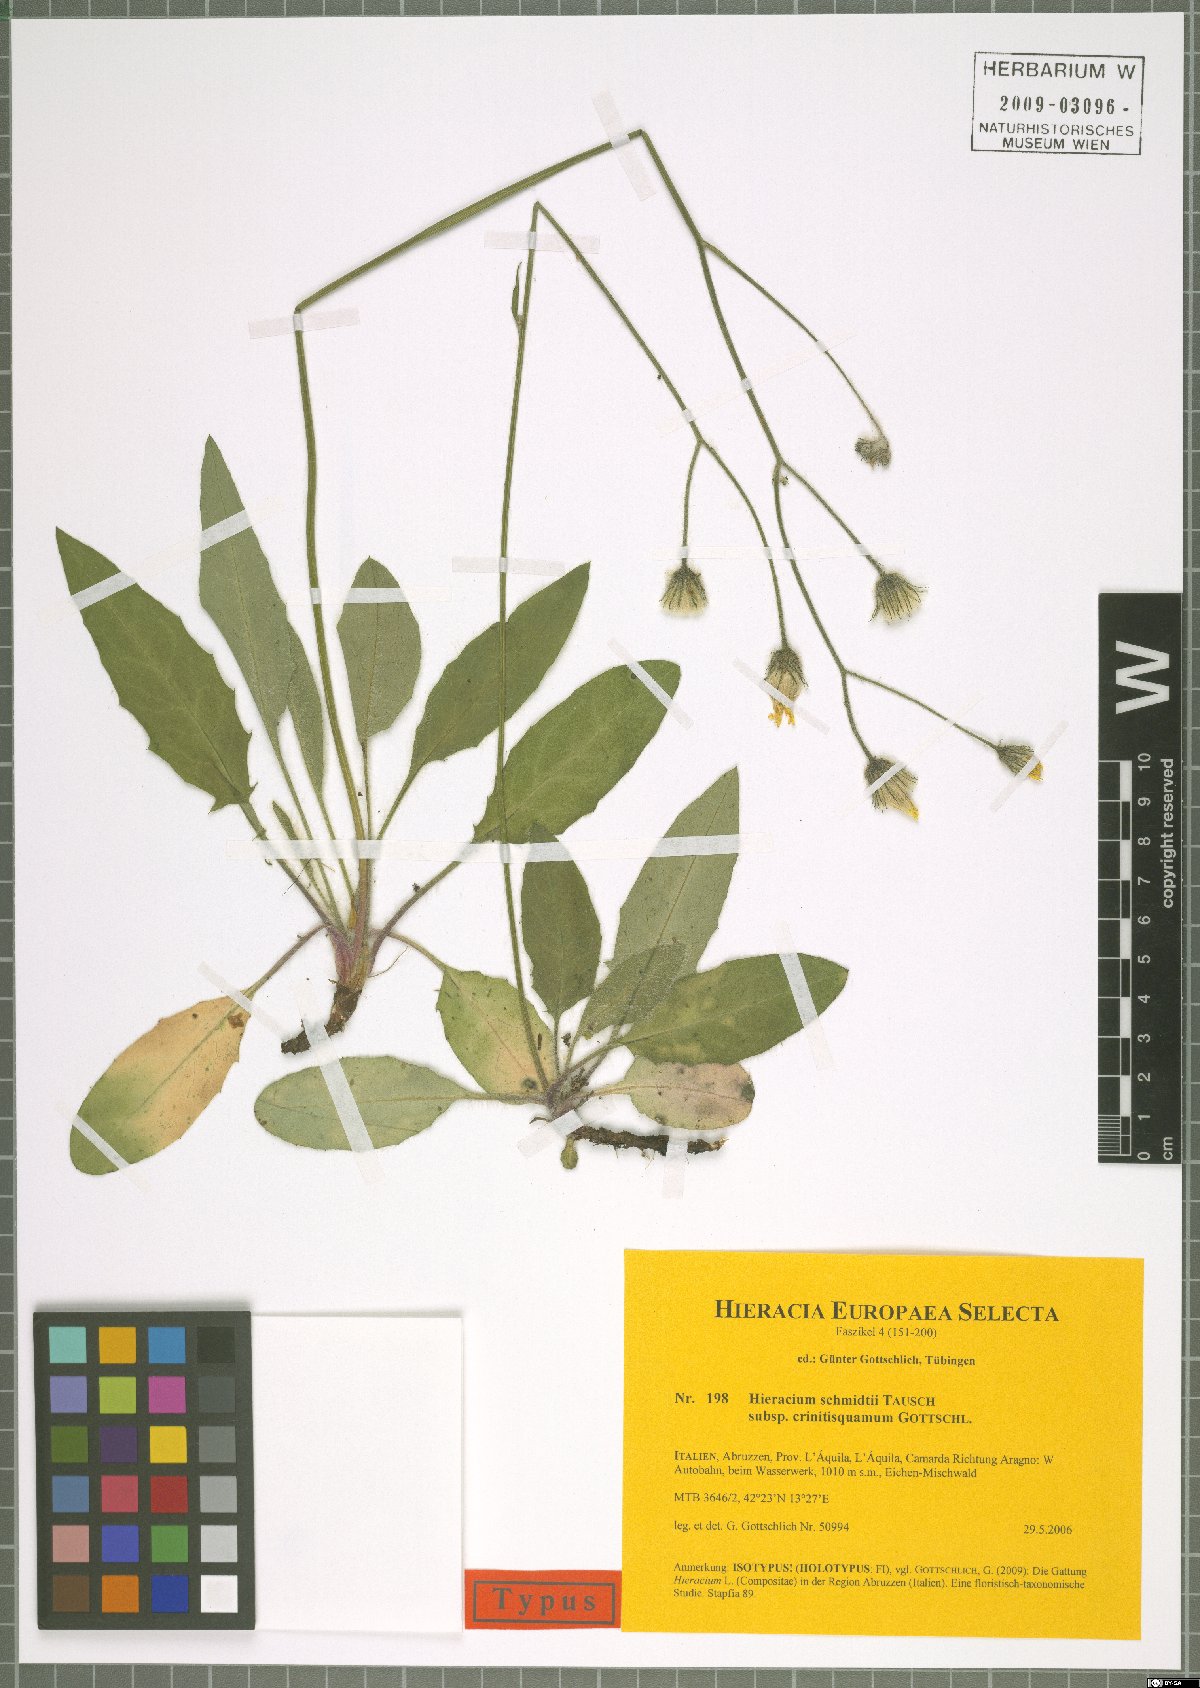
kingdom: Plantae
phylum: Tracheophyta
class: Magnoliopsida
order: Asterales
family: Asteraceae
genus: Hieracium
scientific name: Hieracium schmidtii
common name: Schmidt's hawkweed
